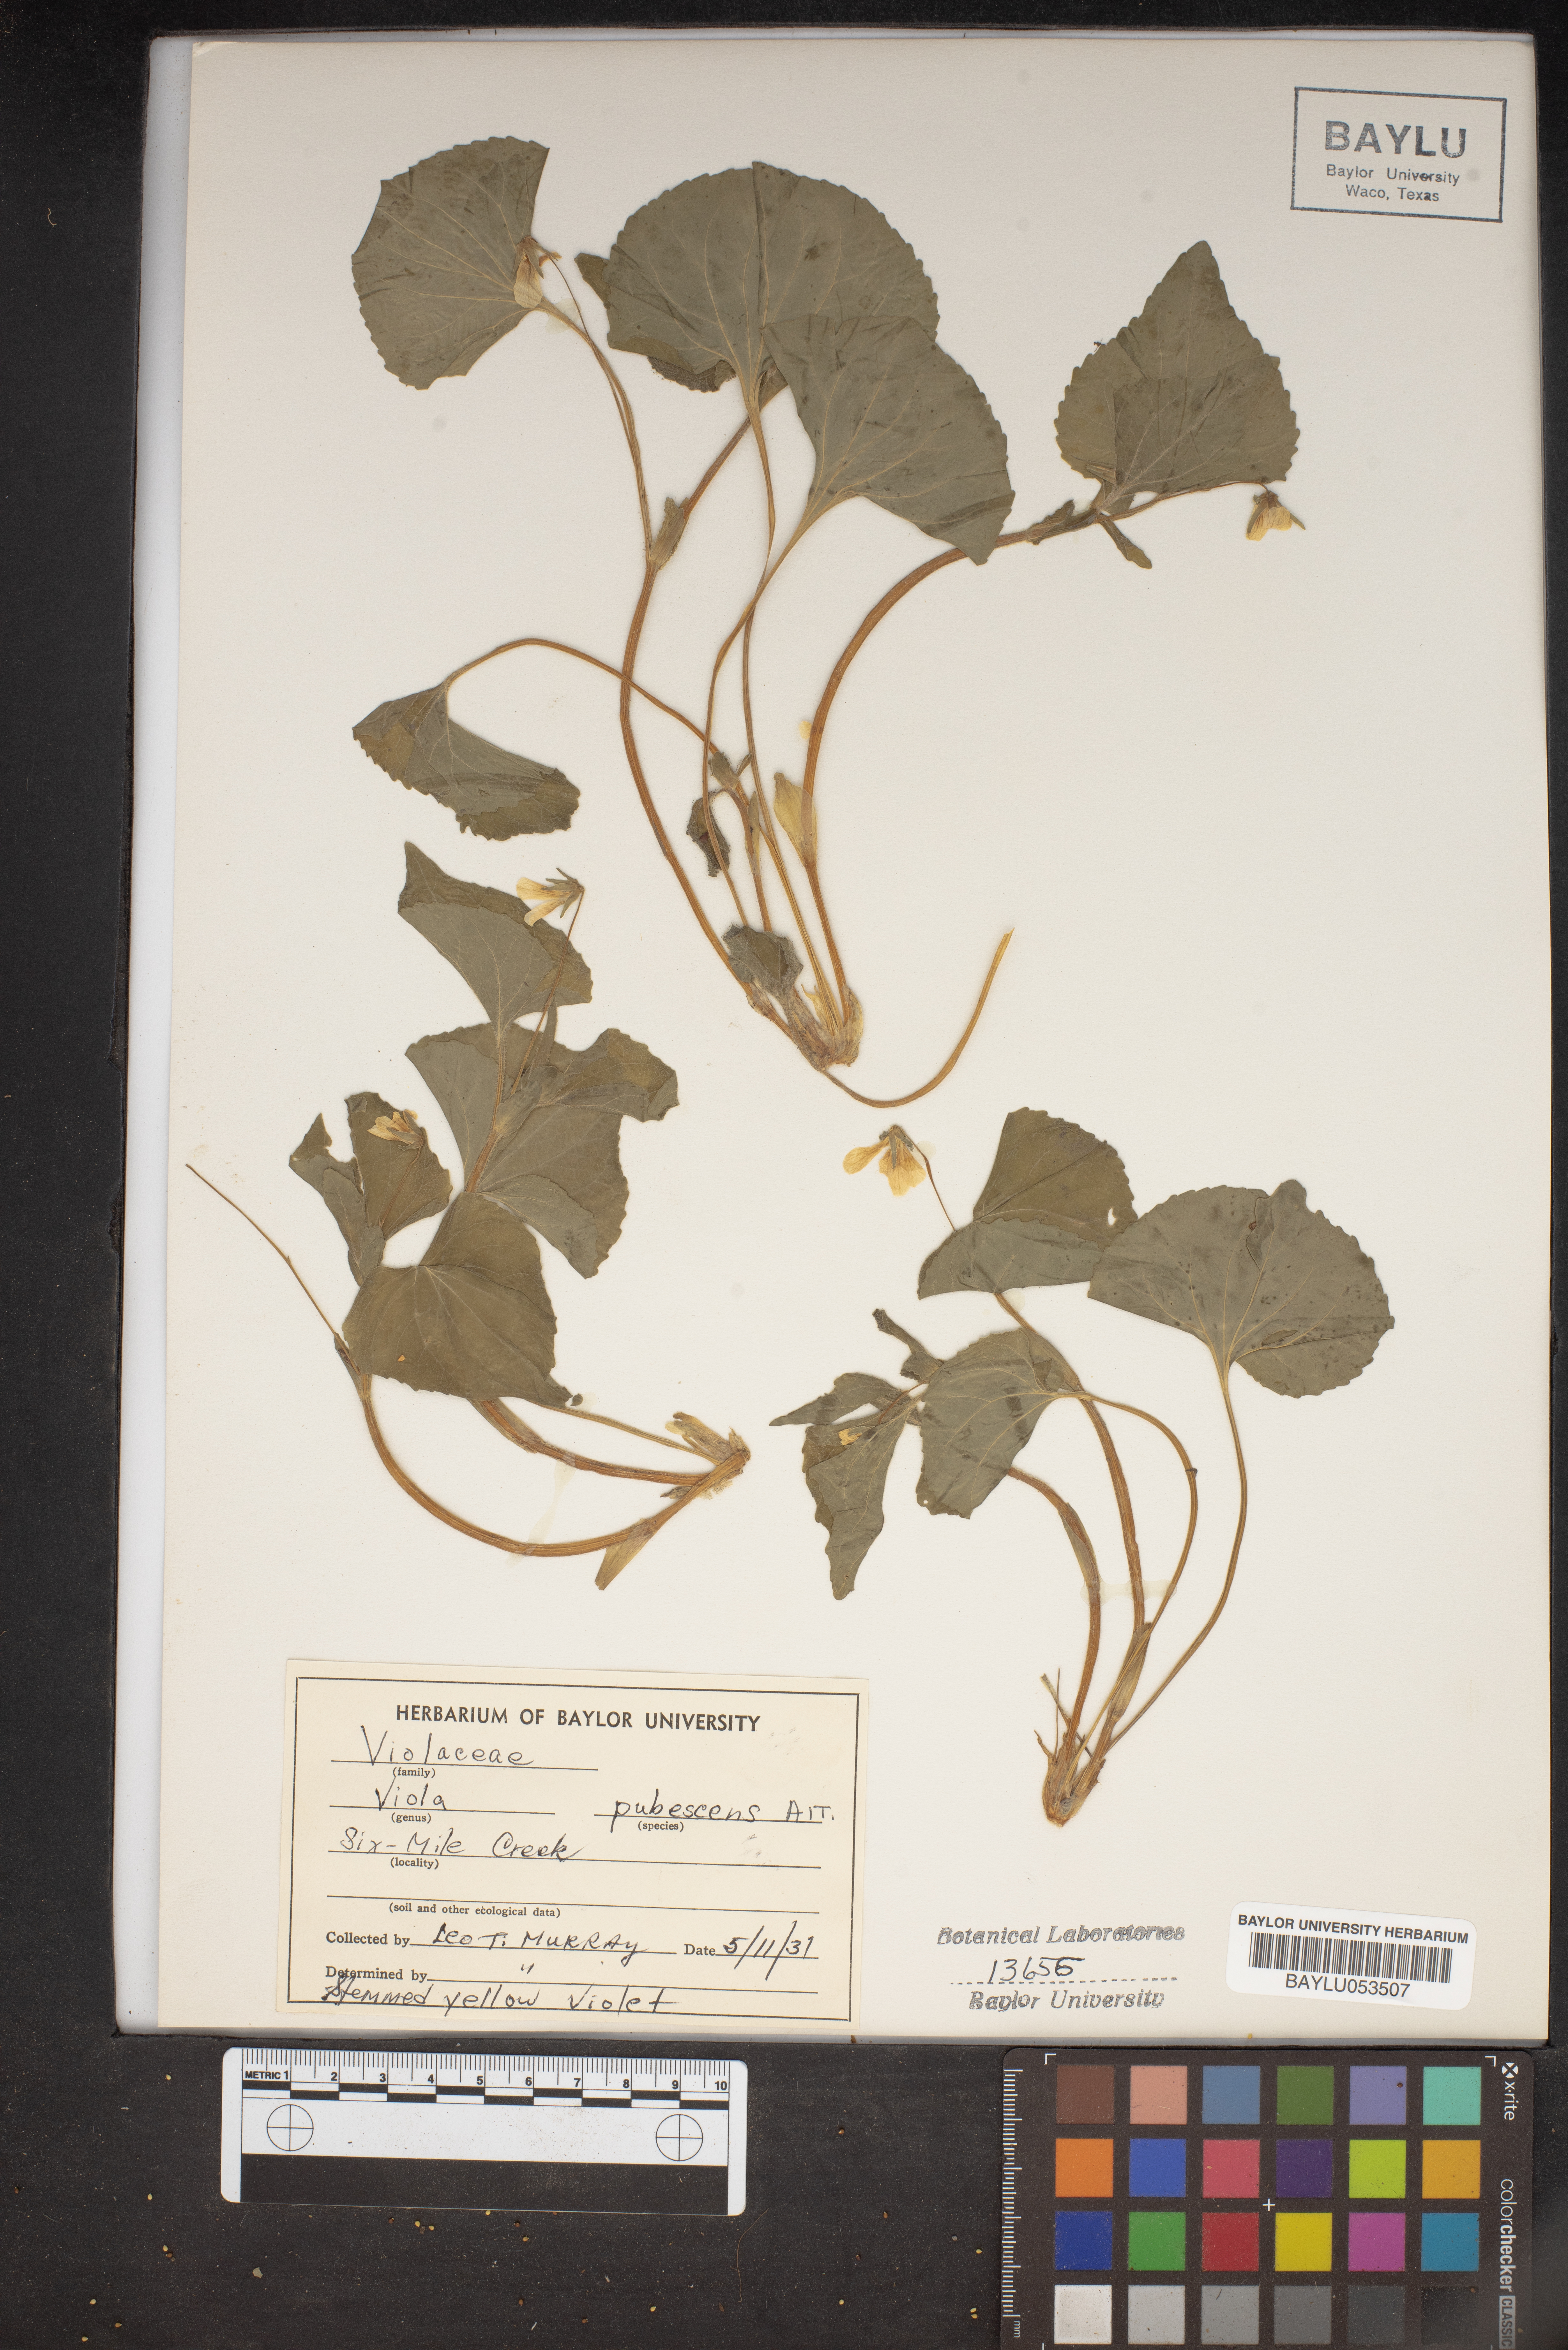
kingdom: Plantae
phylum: Tracheophyta
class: Magnoliopsida
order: Malpighiales
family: Violaceae
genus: Viola
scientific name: Viola pubescens
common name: Yellow forest violet
